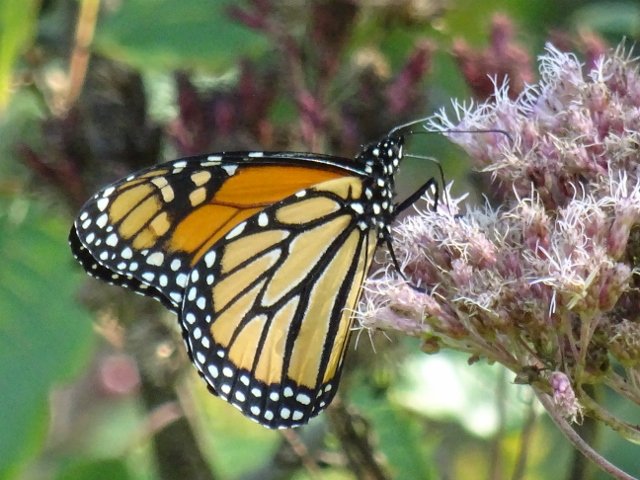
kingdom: Animalia
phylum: Arthropoda
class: Insecta
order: Lepidoptera
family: Nymphalidae
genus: Danaus
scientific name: Danaus plexippus
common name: Monarch
